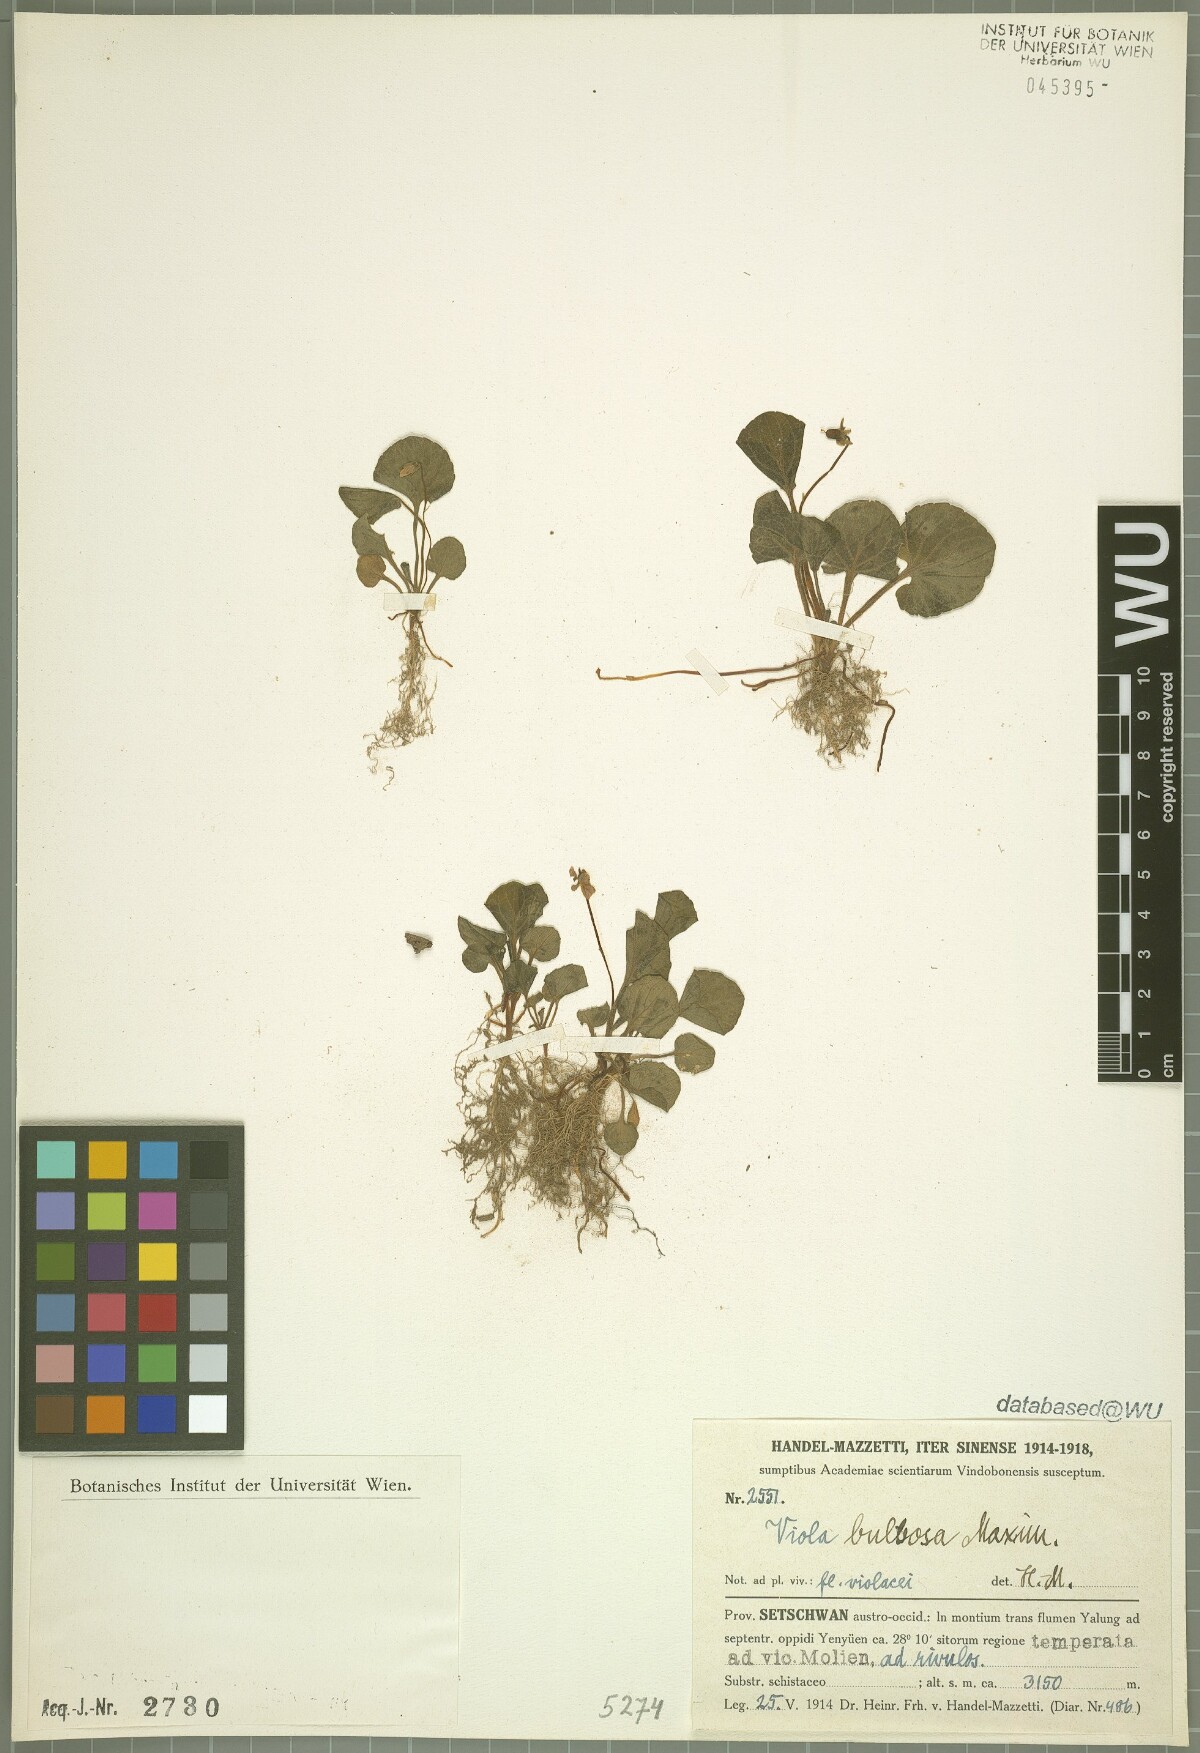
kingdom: Plantae
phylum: Tracheophyta
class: Magnoliopsida
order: Malpighiales
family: Violaceae
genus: Viola
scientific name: Viola bulbosa
